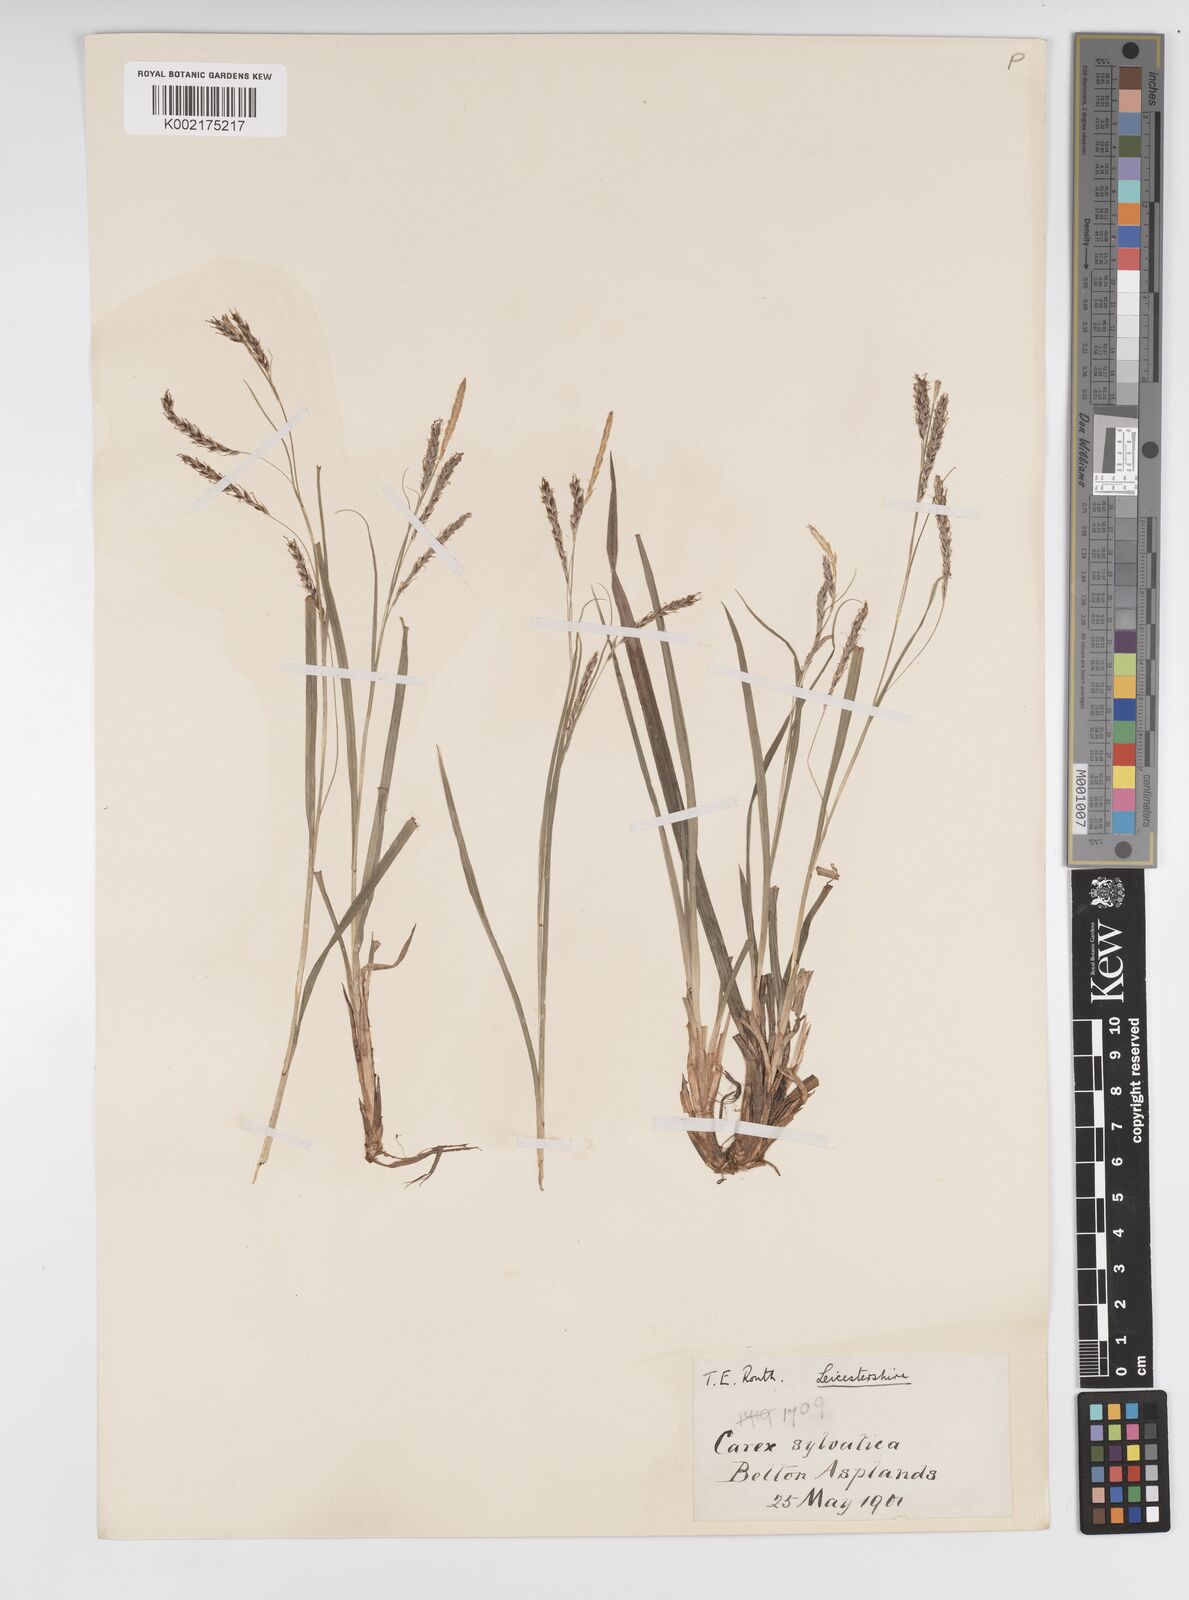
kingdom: Plantae
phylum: Tracheophyta
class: Liliopsida
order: Poales
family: Cyperaceae
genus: Carex
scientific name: Carex sylvatica
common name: Wood-sedge
